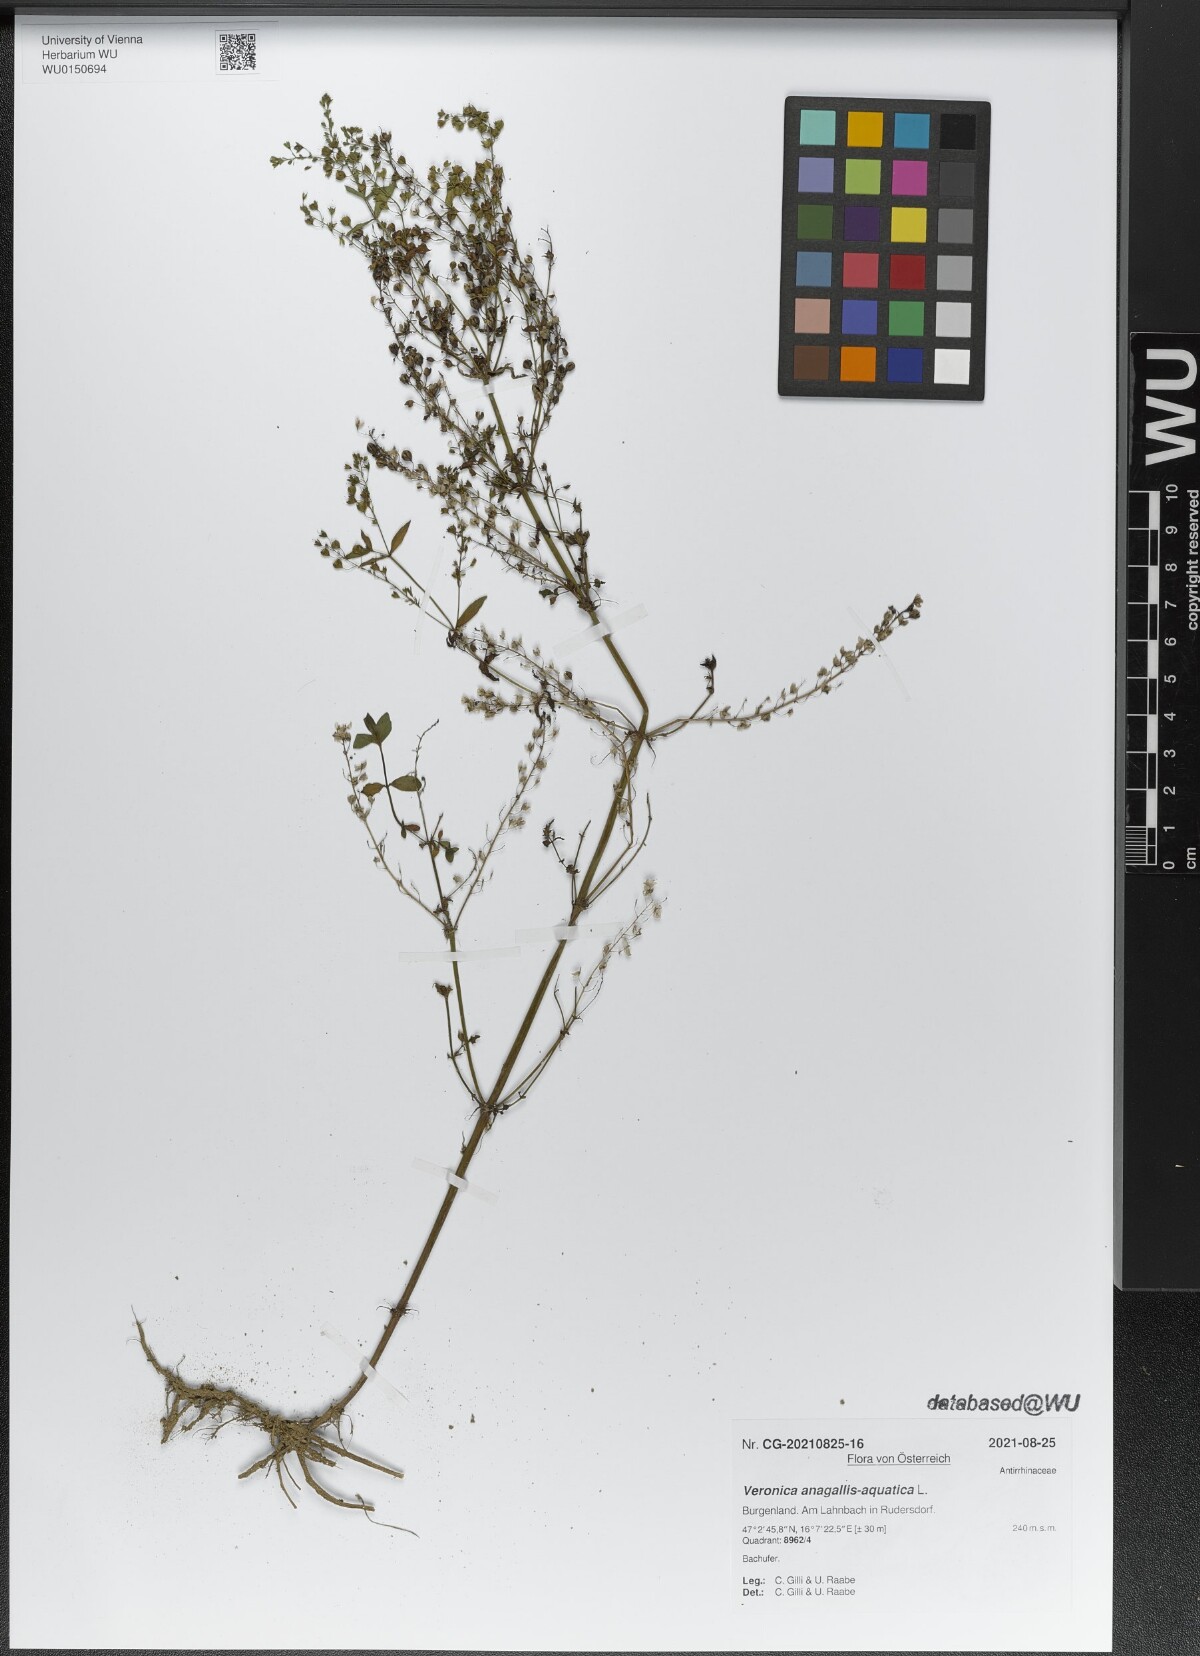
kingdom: Plantae
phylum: Tracheophyta
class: Magnoliopsida
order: Lamiales
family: Plantaginaceae
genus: Veronica
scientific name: Veronica anagallis-aquatica
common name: Water speedwell
